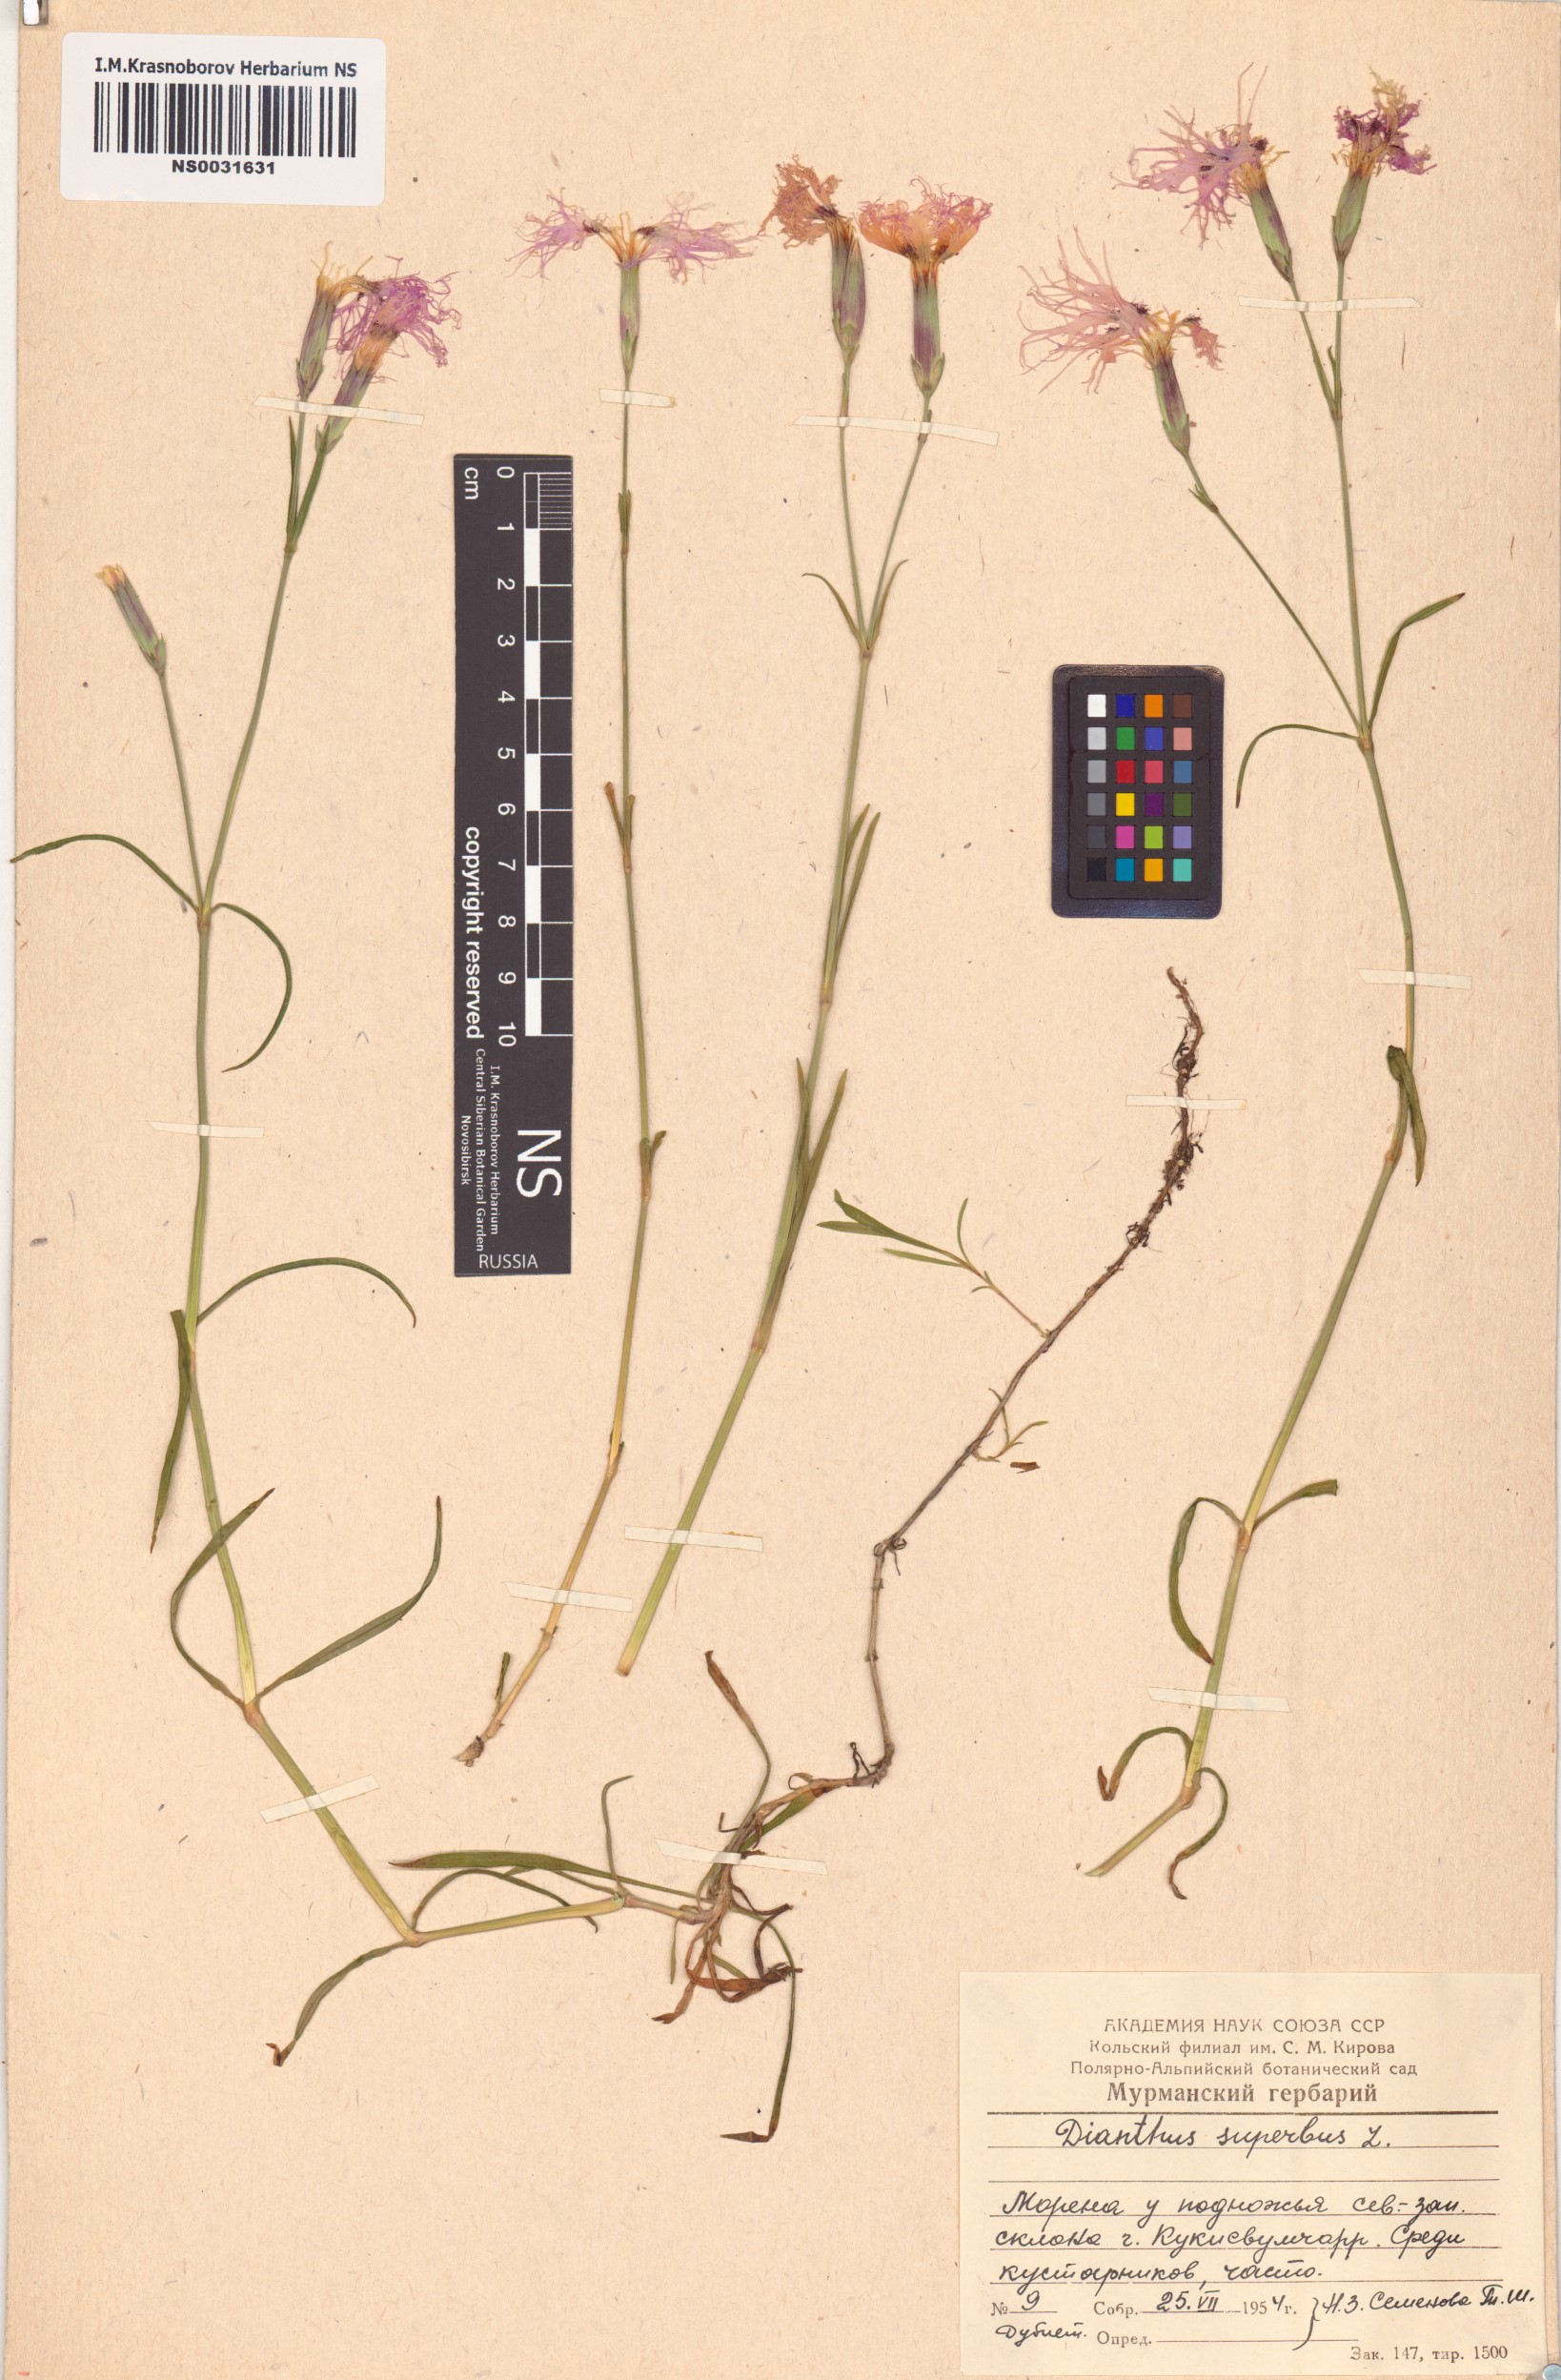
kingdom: Plantae
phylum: Tracheophyta
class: Magnoliopsida
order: Caryophyllales
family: Caryophyllaceae
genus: Dianthus
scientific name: Dianthus superbus
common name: Fringed pink
